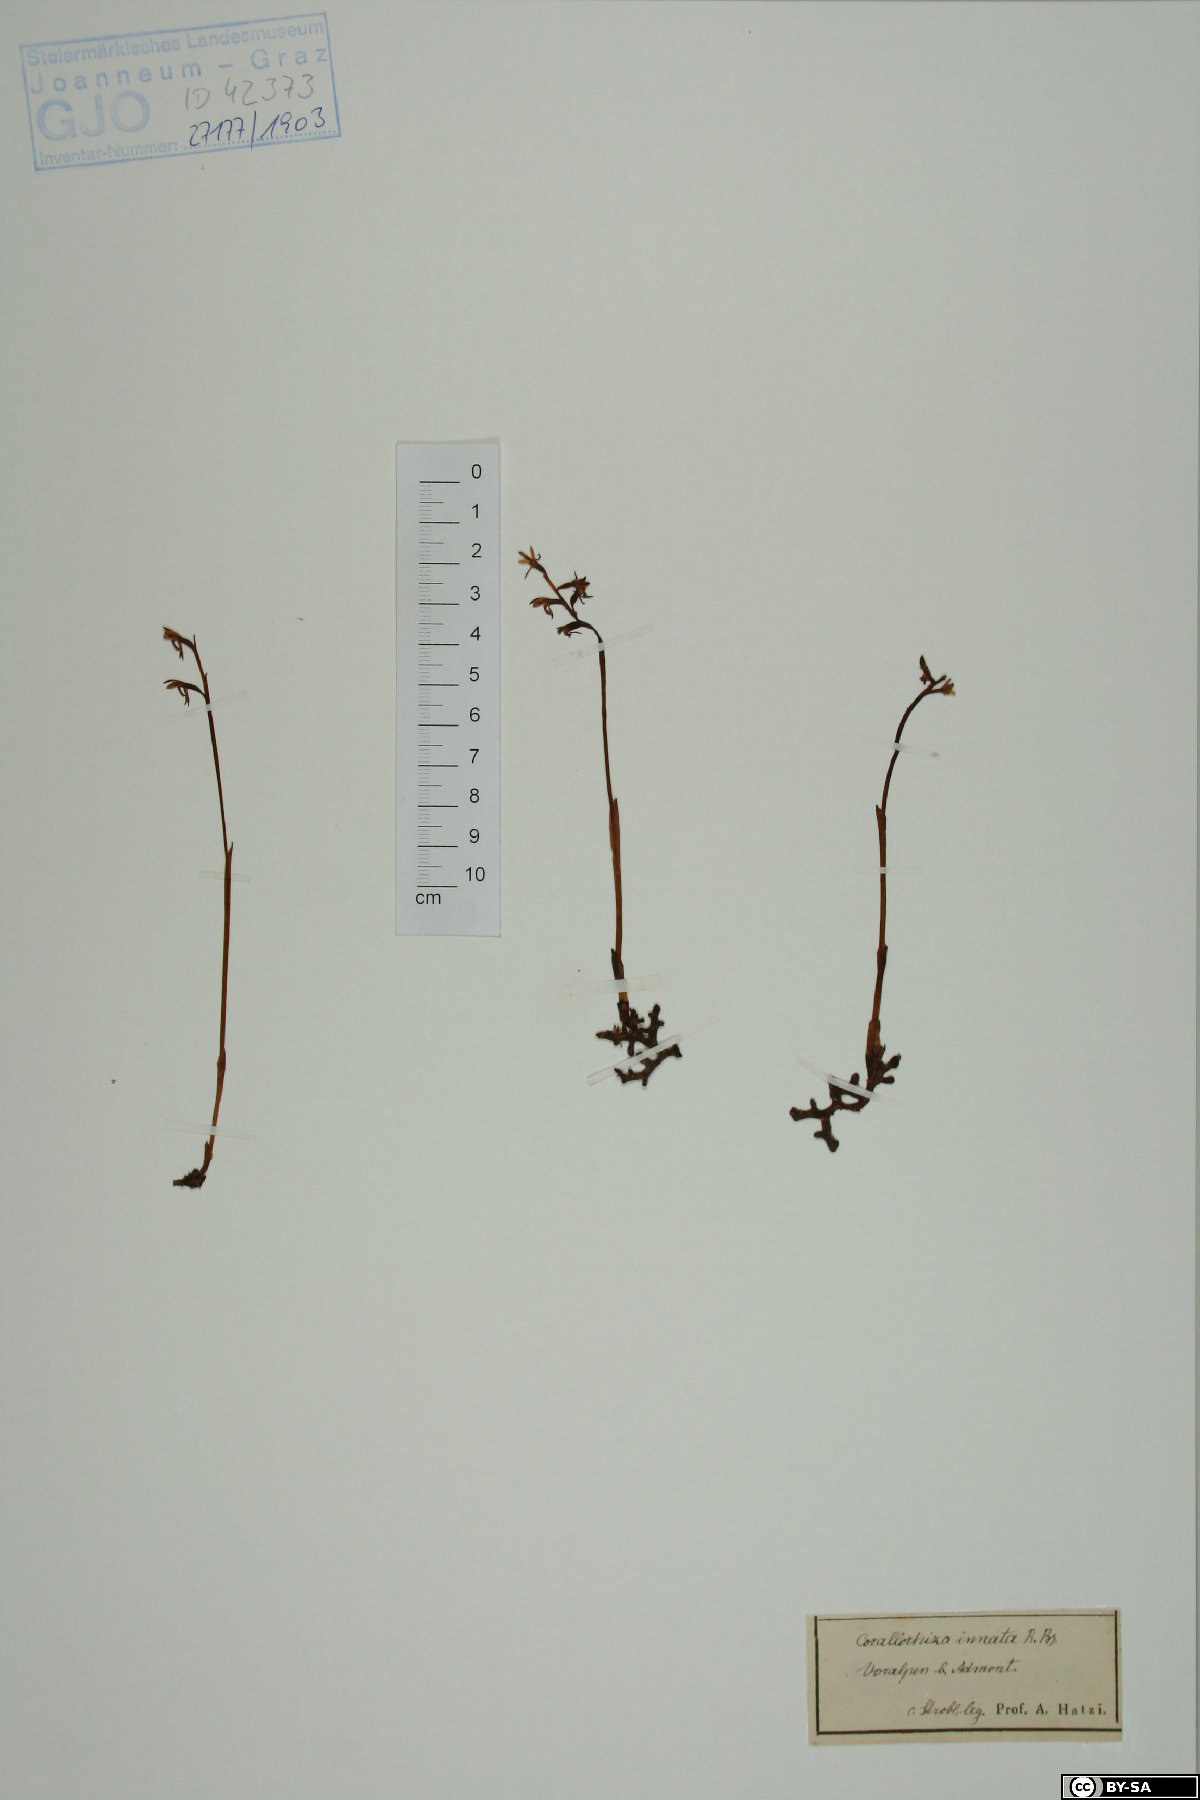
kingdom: Plantae
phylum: Tracheophyta
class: Liliopsida
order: Asparagales
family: Orchidaceae
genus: Corallorhiza
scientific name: Corallorhiza trifida
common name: Yellow coralroot
